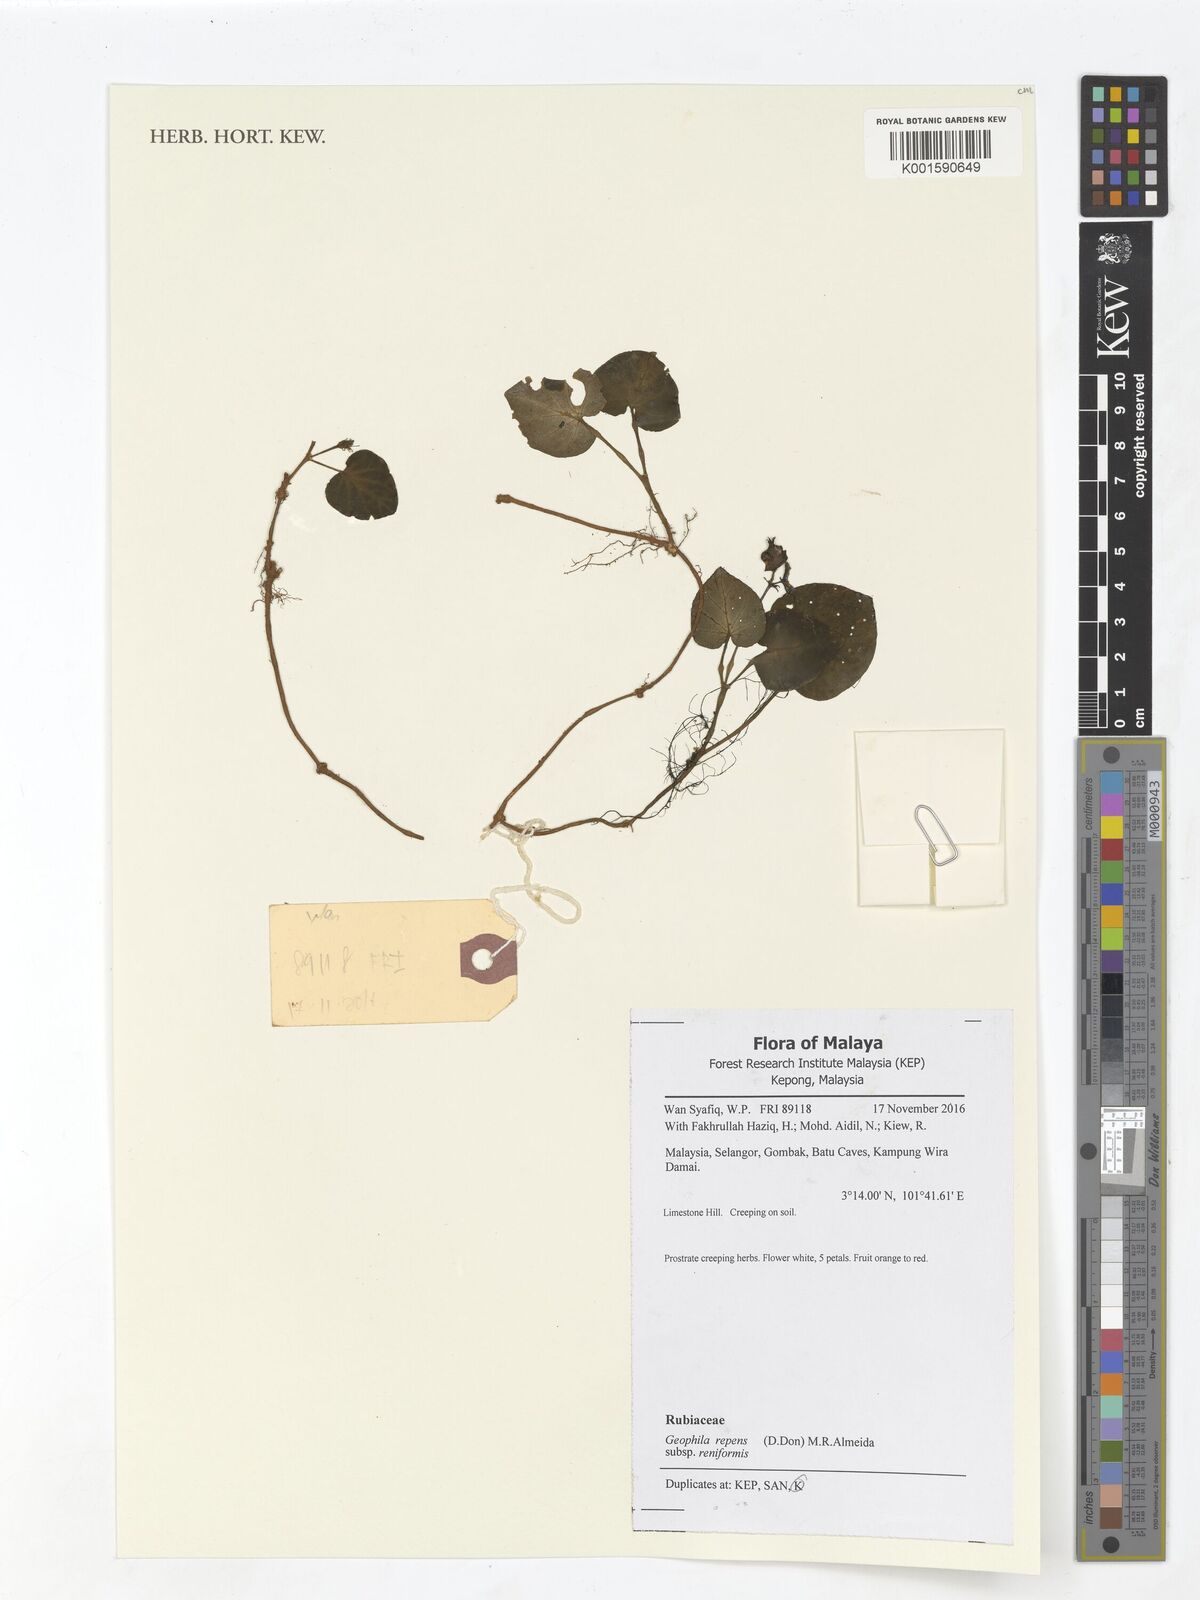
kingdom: Plantae
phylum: Tracheophyta
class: Magnoliopsida
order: Gentianales
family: Rubiaceae
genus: Geophila
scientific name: Geophila repens
